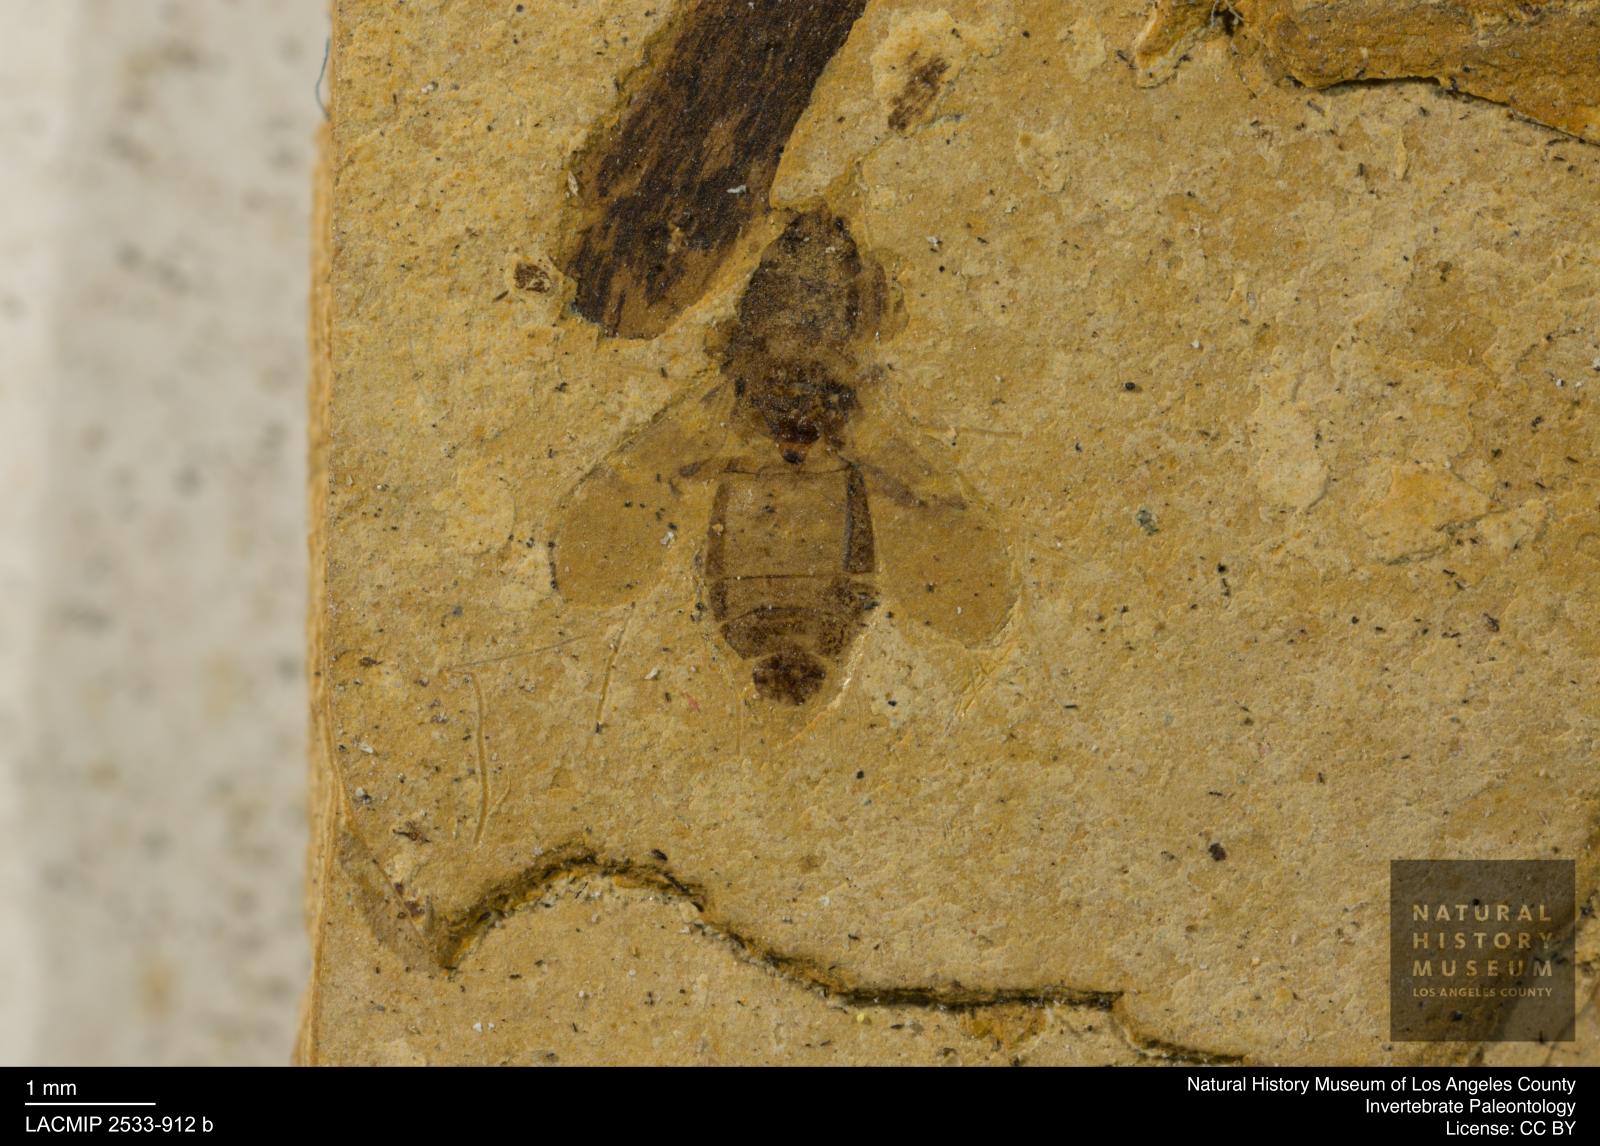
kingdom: Animalia
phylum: Arthropoda
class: Insecta
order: Hemiptera
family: Lygaeidae
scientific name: Lygaeidae
